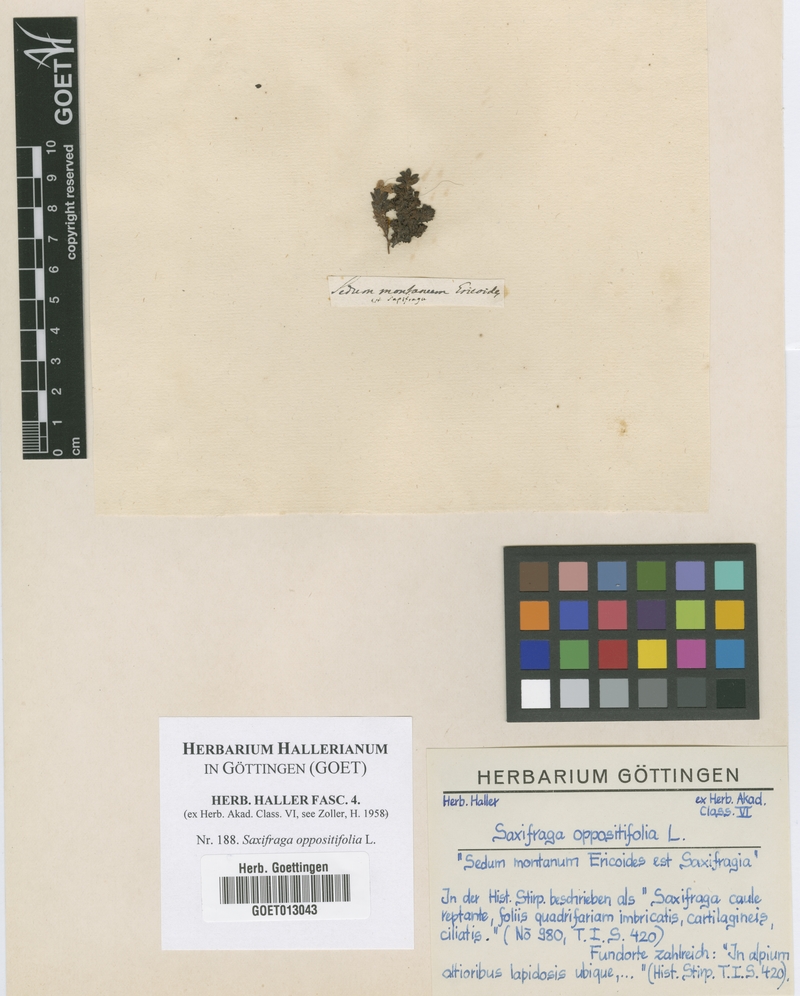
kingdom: Plantae
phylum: Tracheophyta
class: Magnoliopsida
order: Saxifragales
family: Saxifragaceae
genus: Saxifraga
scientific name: Saxifraga oppositifolia
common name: Purple saxifrage
